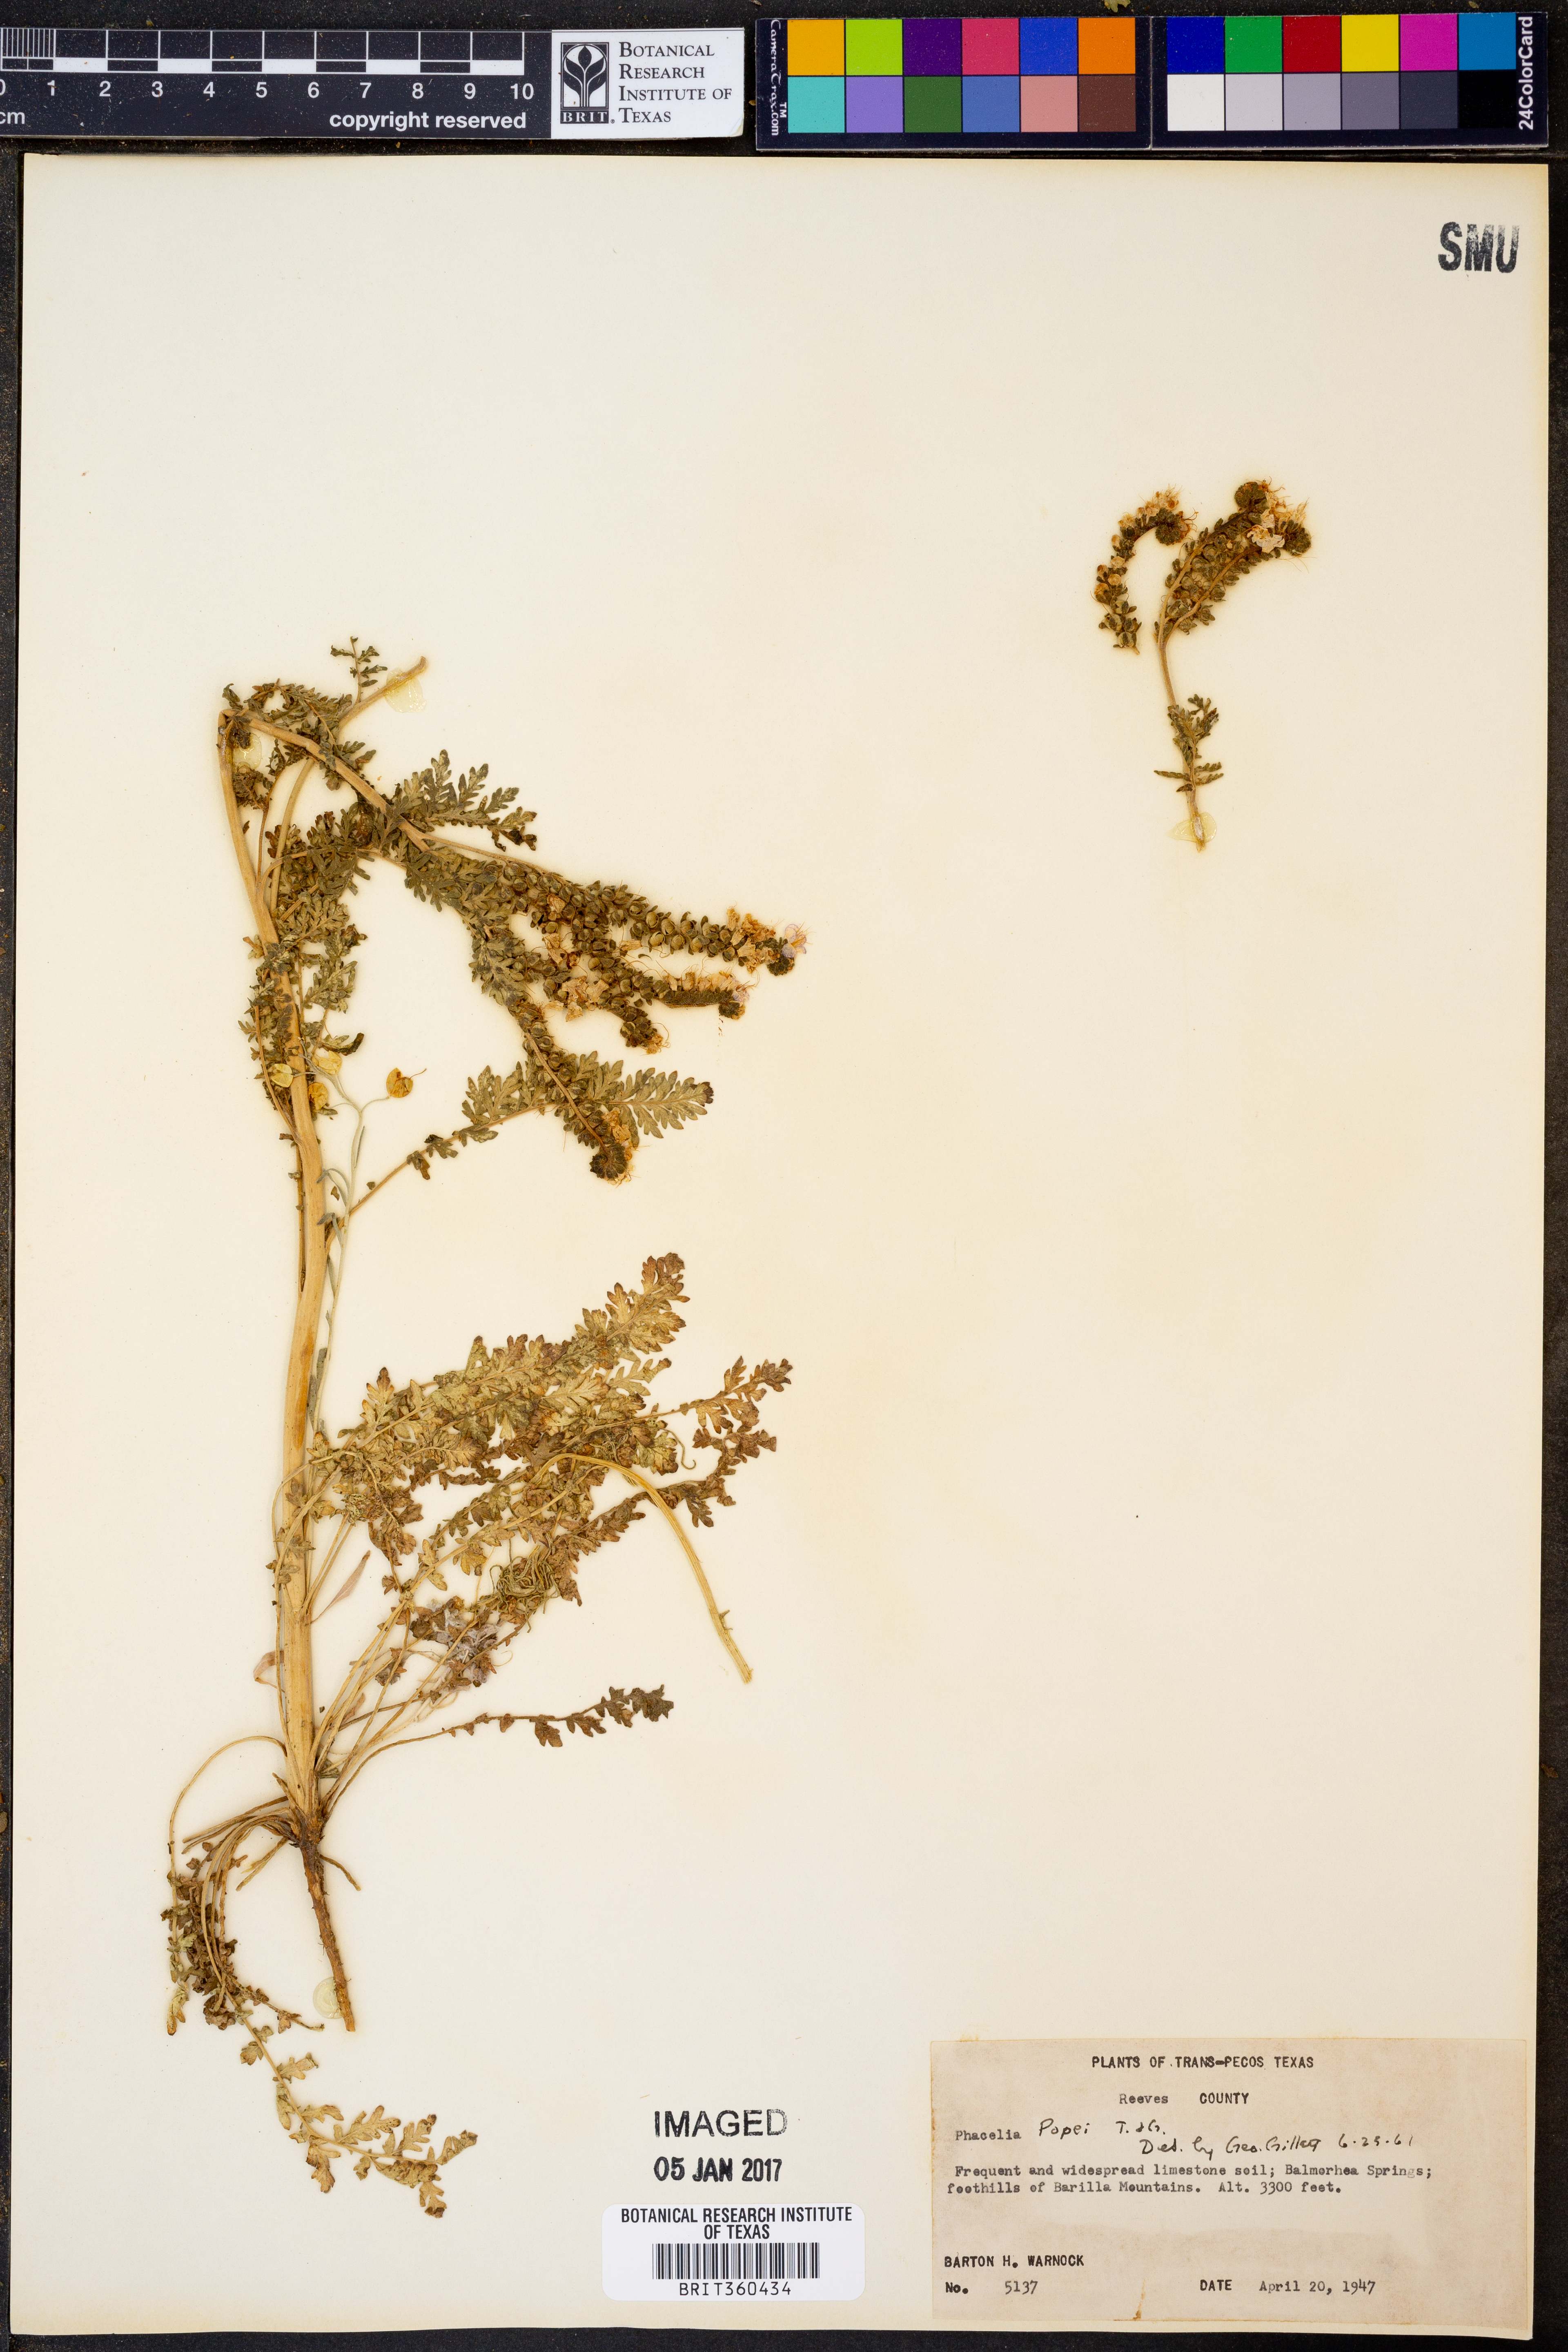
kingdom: Plantae
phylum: Tracheophyta
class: Magnoliopsida
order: Boraginales
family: Hydrophyllaceae
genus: Phacelia
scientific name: Phacelia popei
